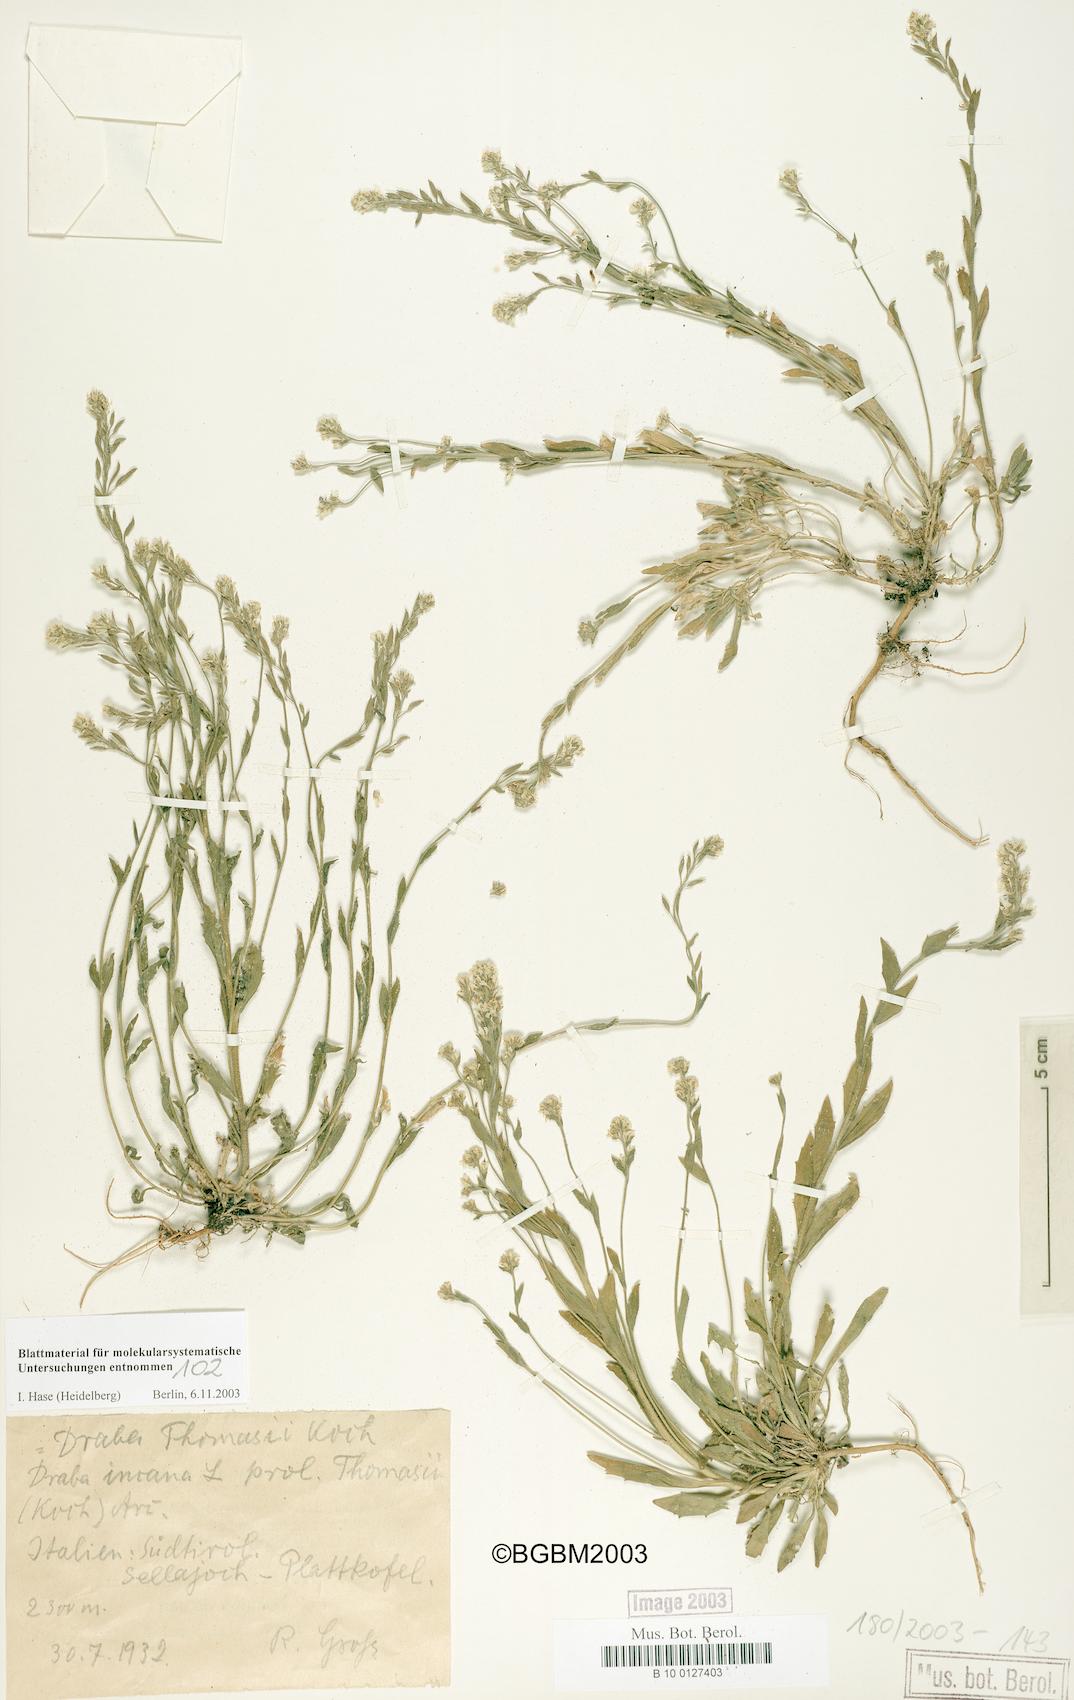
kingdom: Plantae
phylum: Tracheophyta
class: Magnoliopsida
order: Brassicales
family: Brassicaceae
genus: Draba
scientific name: Draba thomasii
